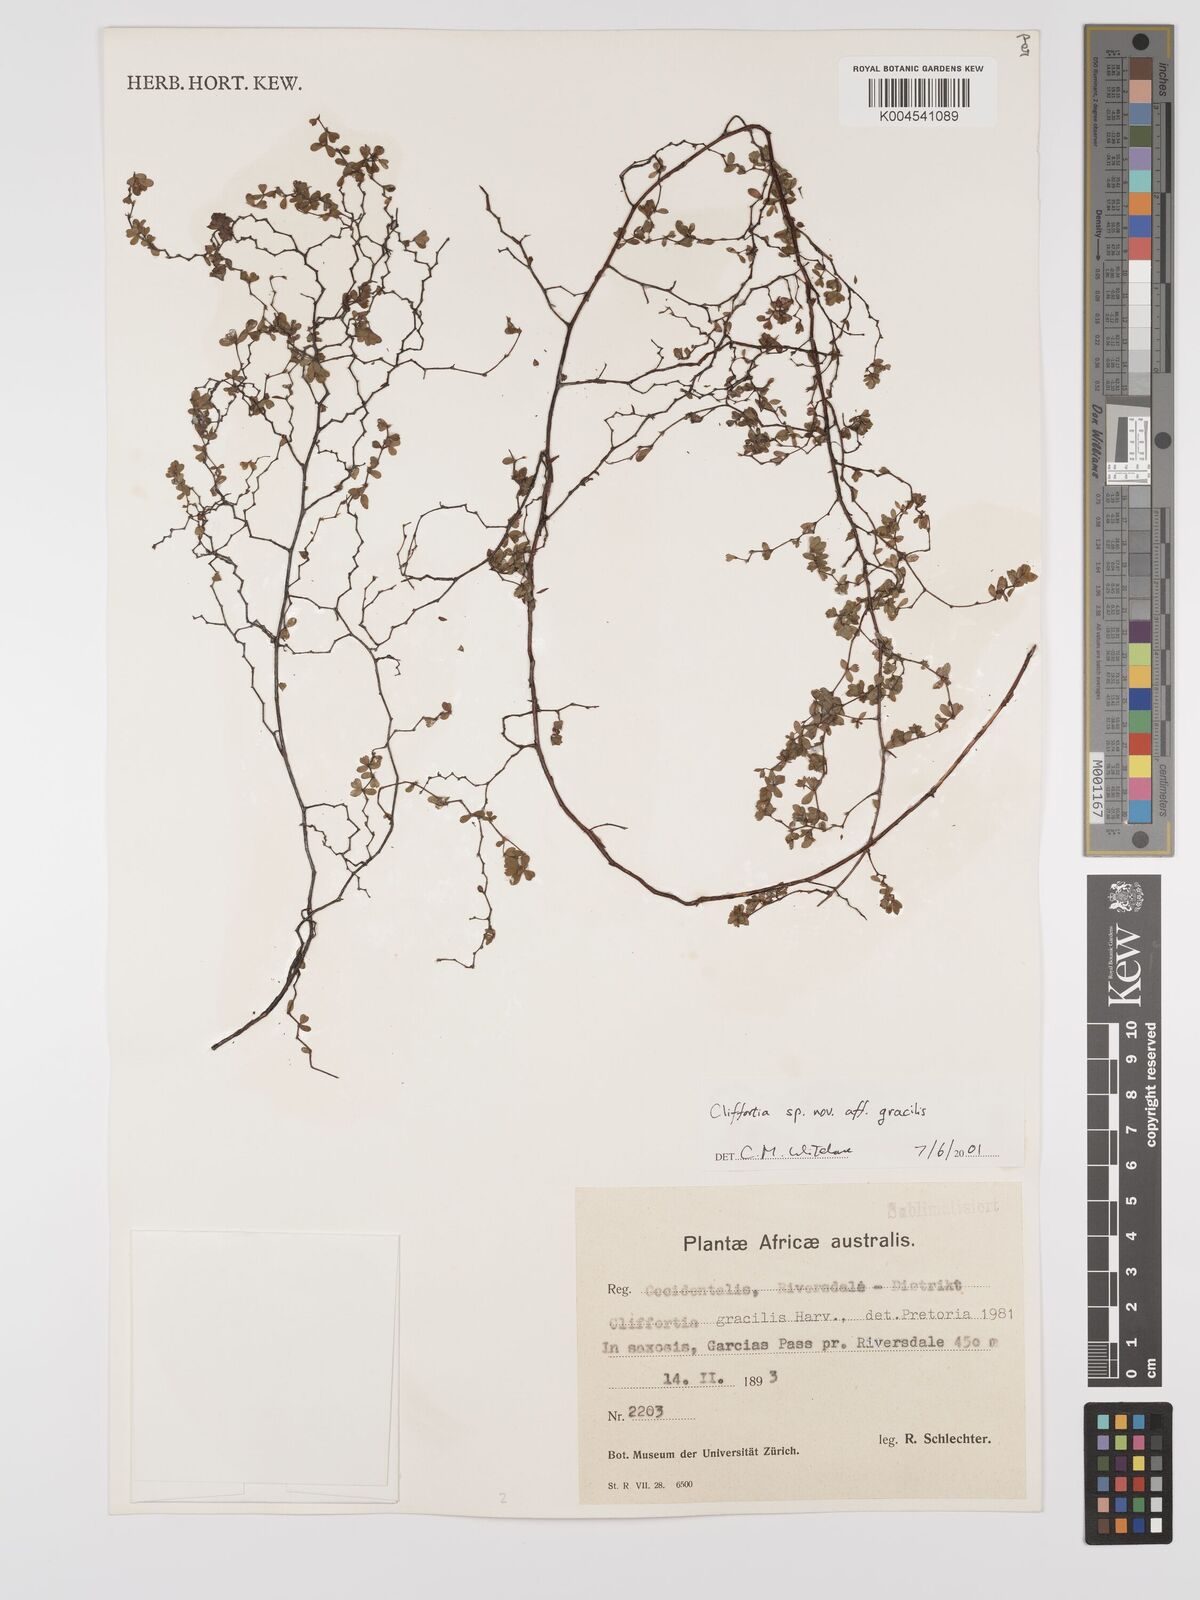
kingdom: Plantae
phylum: Tracheophyta
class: Magnoliopsida
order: Rosales
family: Rosaceae
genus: Cliffortia
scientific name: Cliffortia dentata
